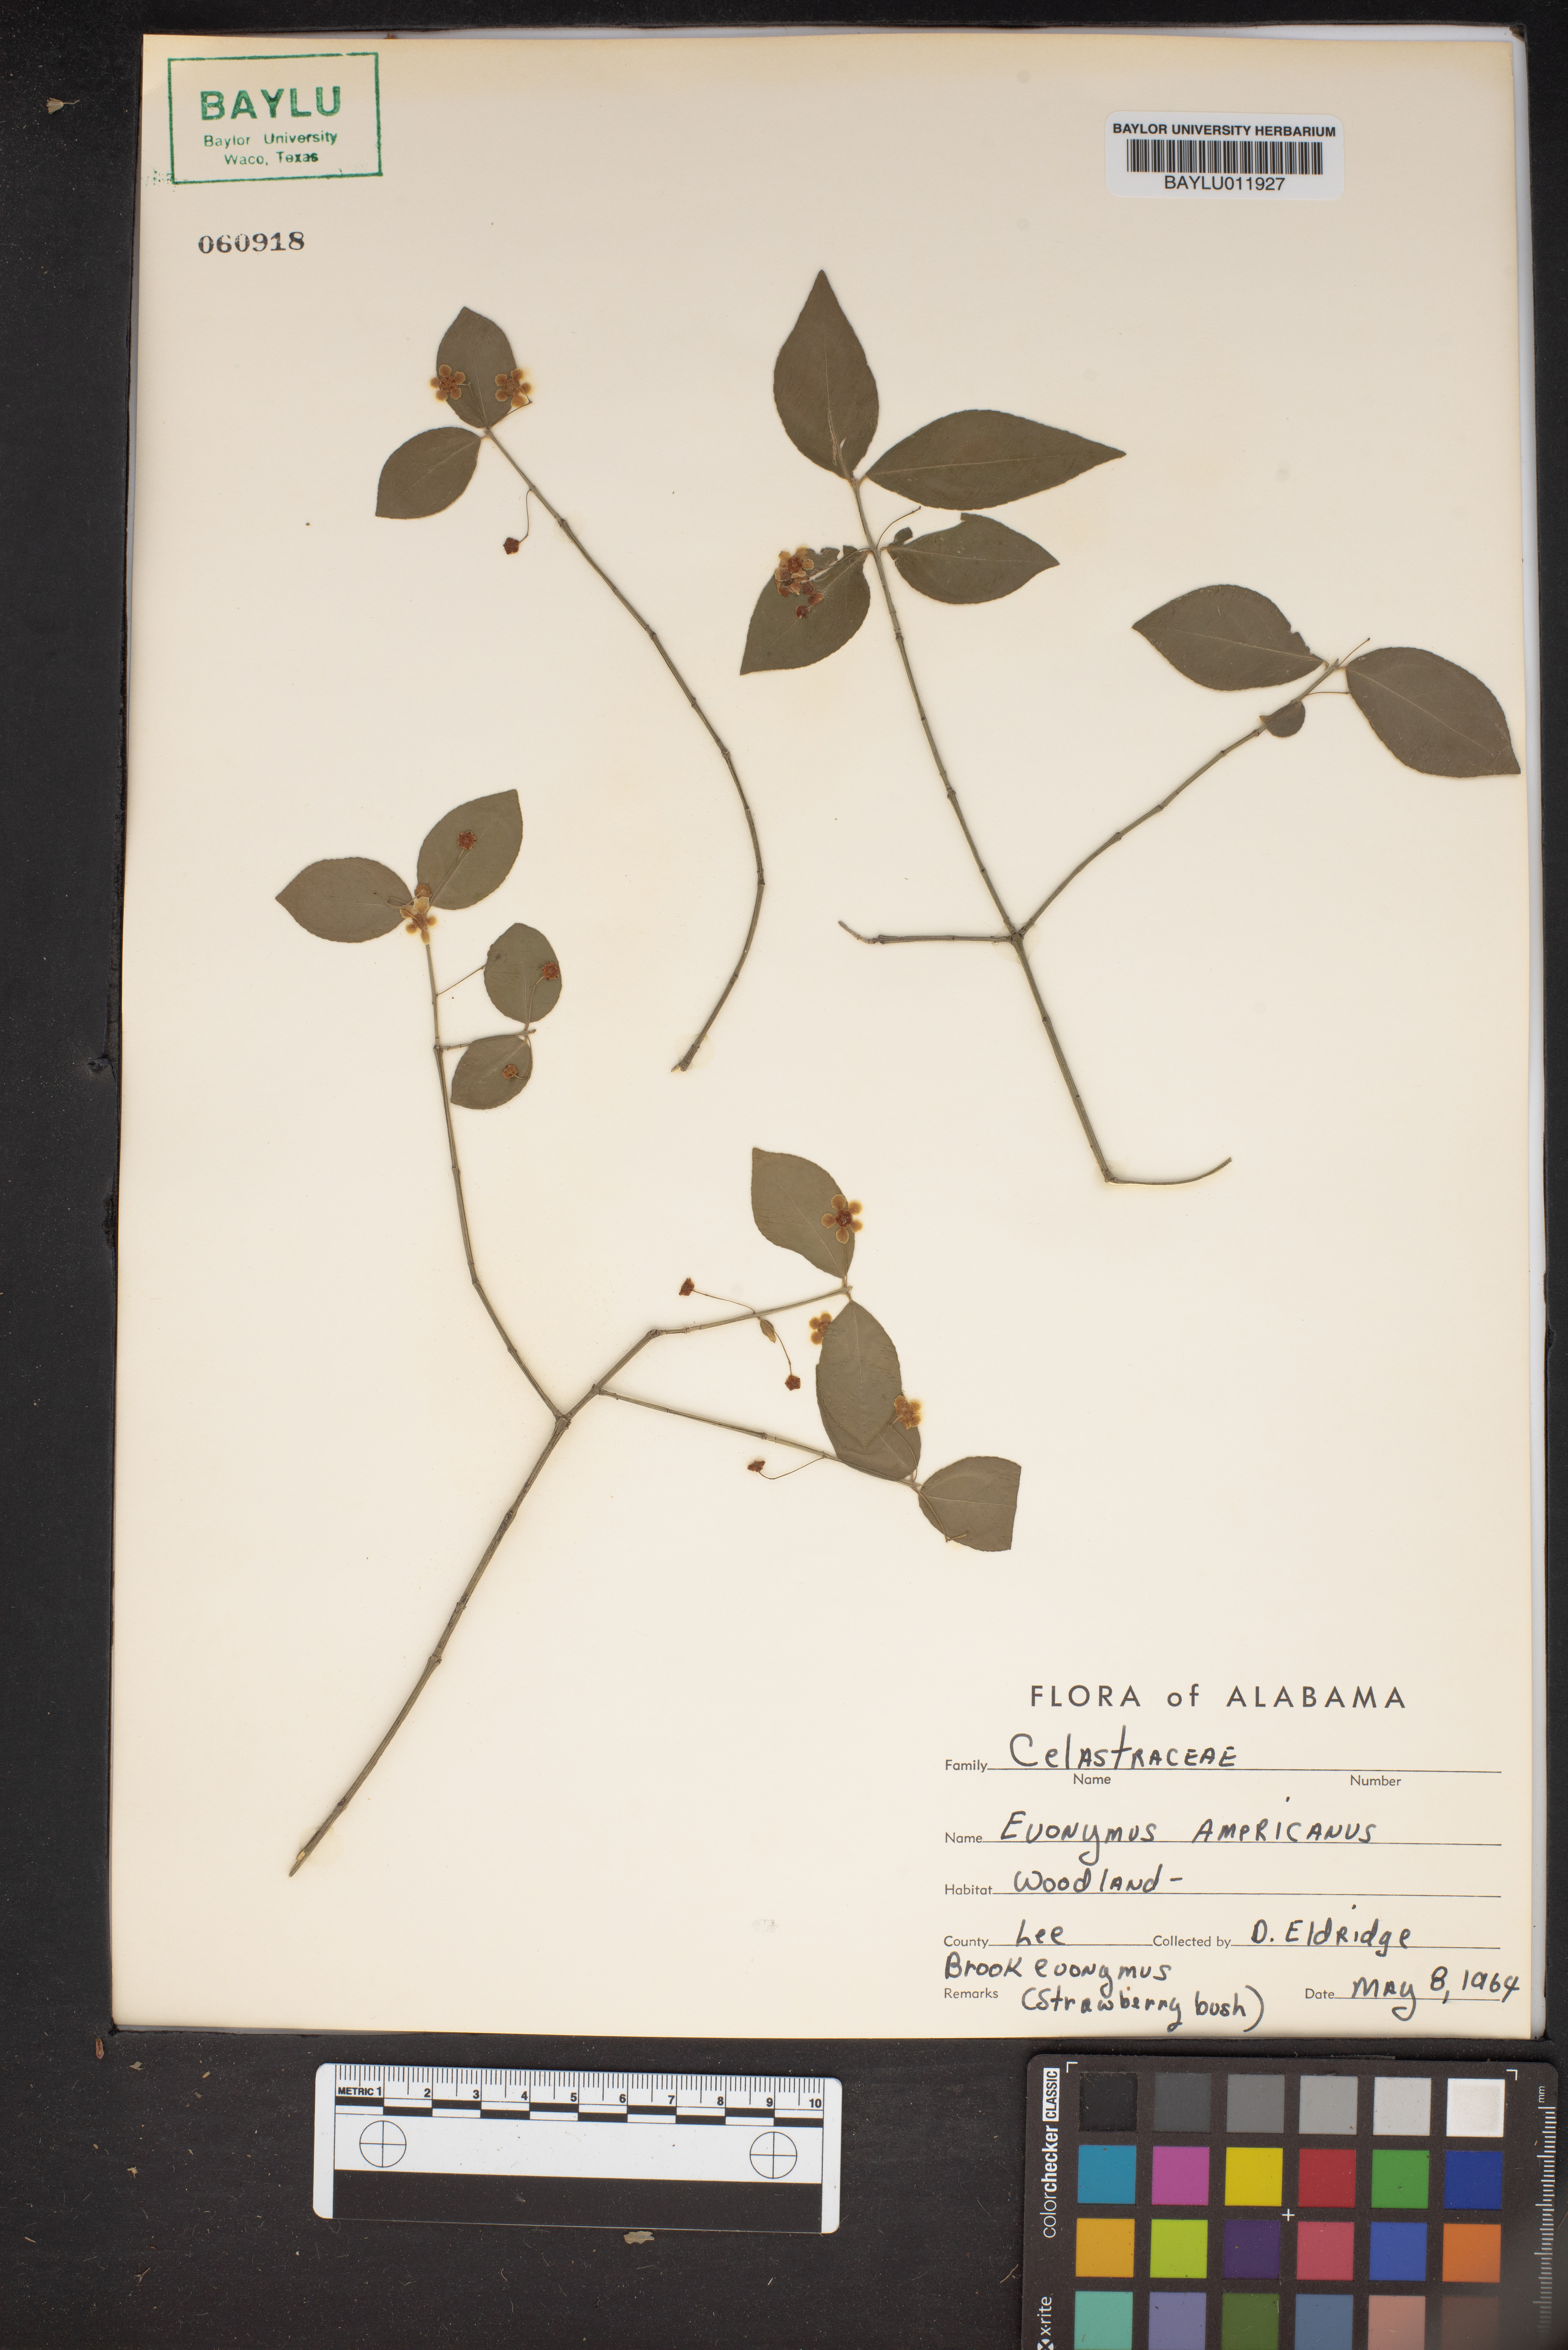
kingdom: Plantae
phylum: Tracheophyta
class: Magnoliopsida
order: Celastrales
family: Celastraceae
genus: Euonymus
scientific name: Euonymus americanus
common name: Bursting-heart
